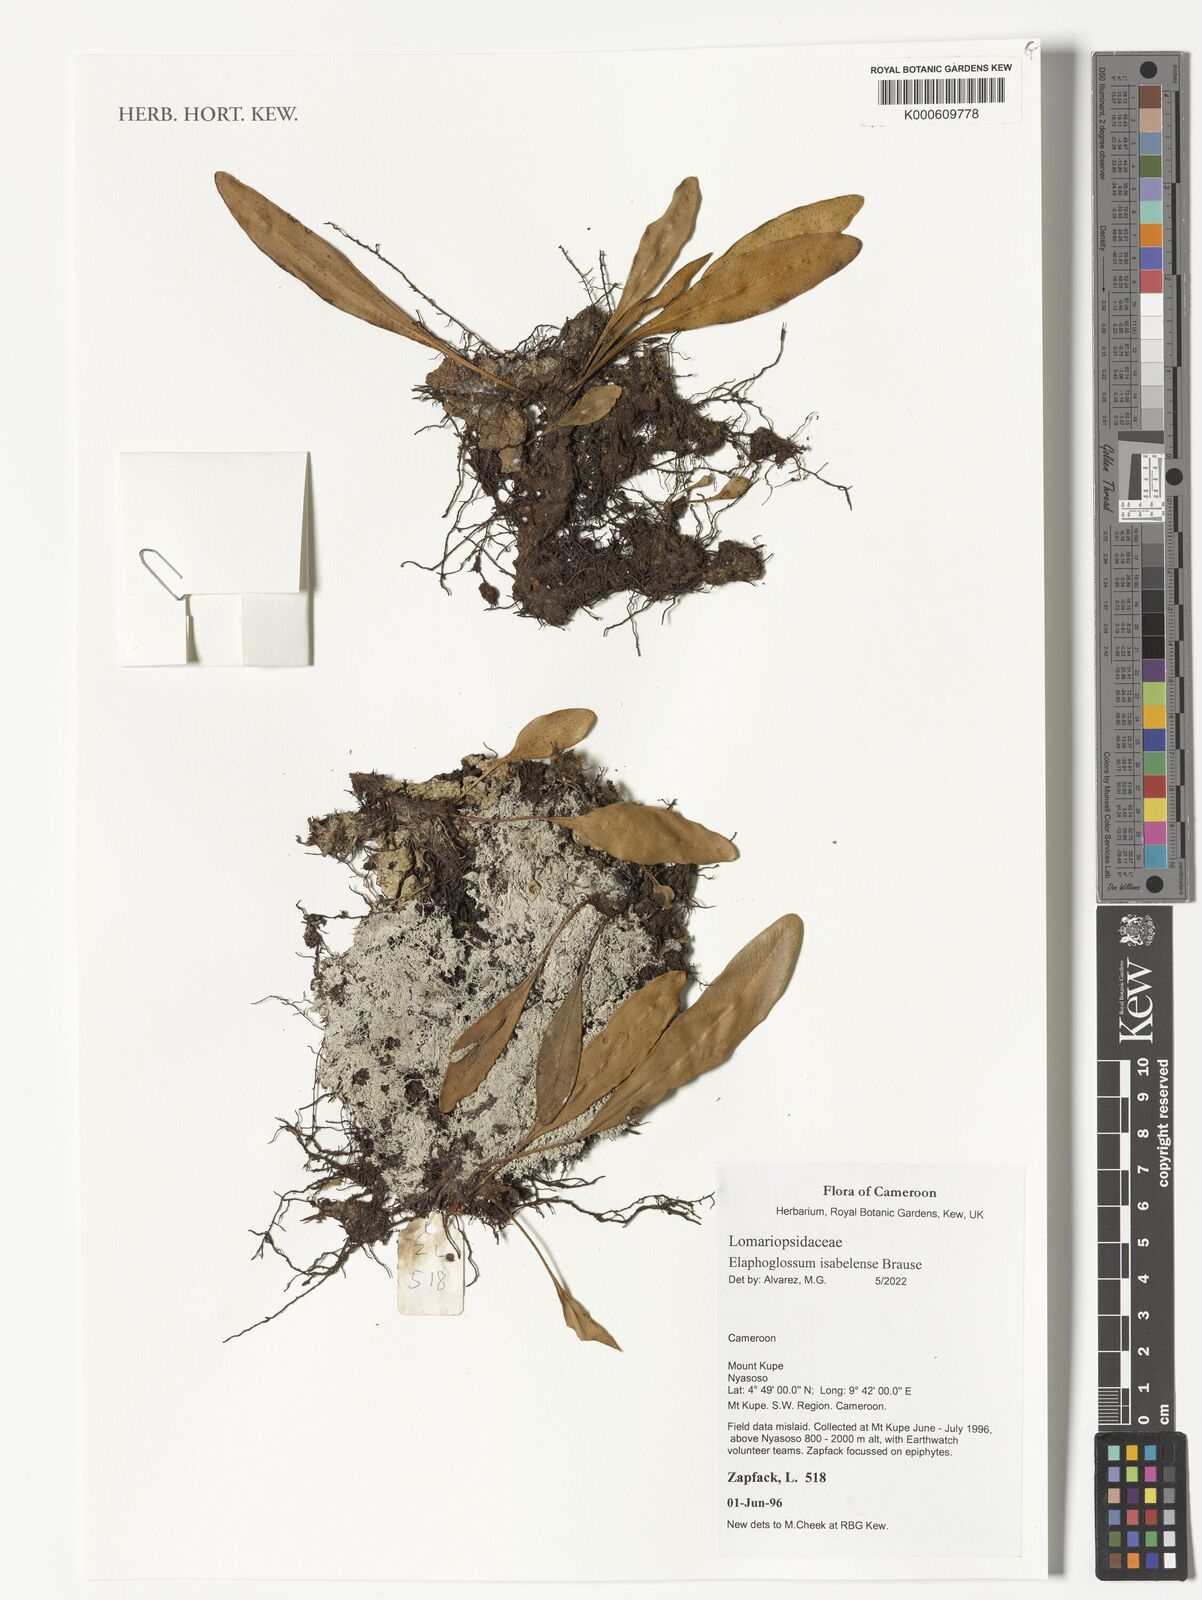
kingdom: Plantae
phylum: Tracheophyta
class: Polypodiopsida
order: Polypodiales
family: Dryopteridaceae
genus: Elaphoglossum
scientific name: Elaphoglossum isabelense
